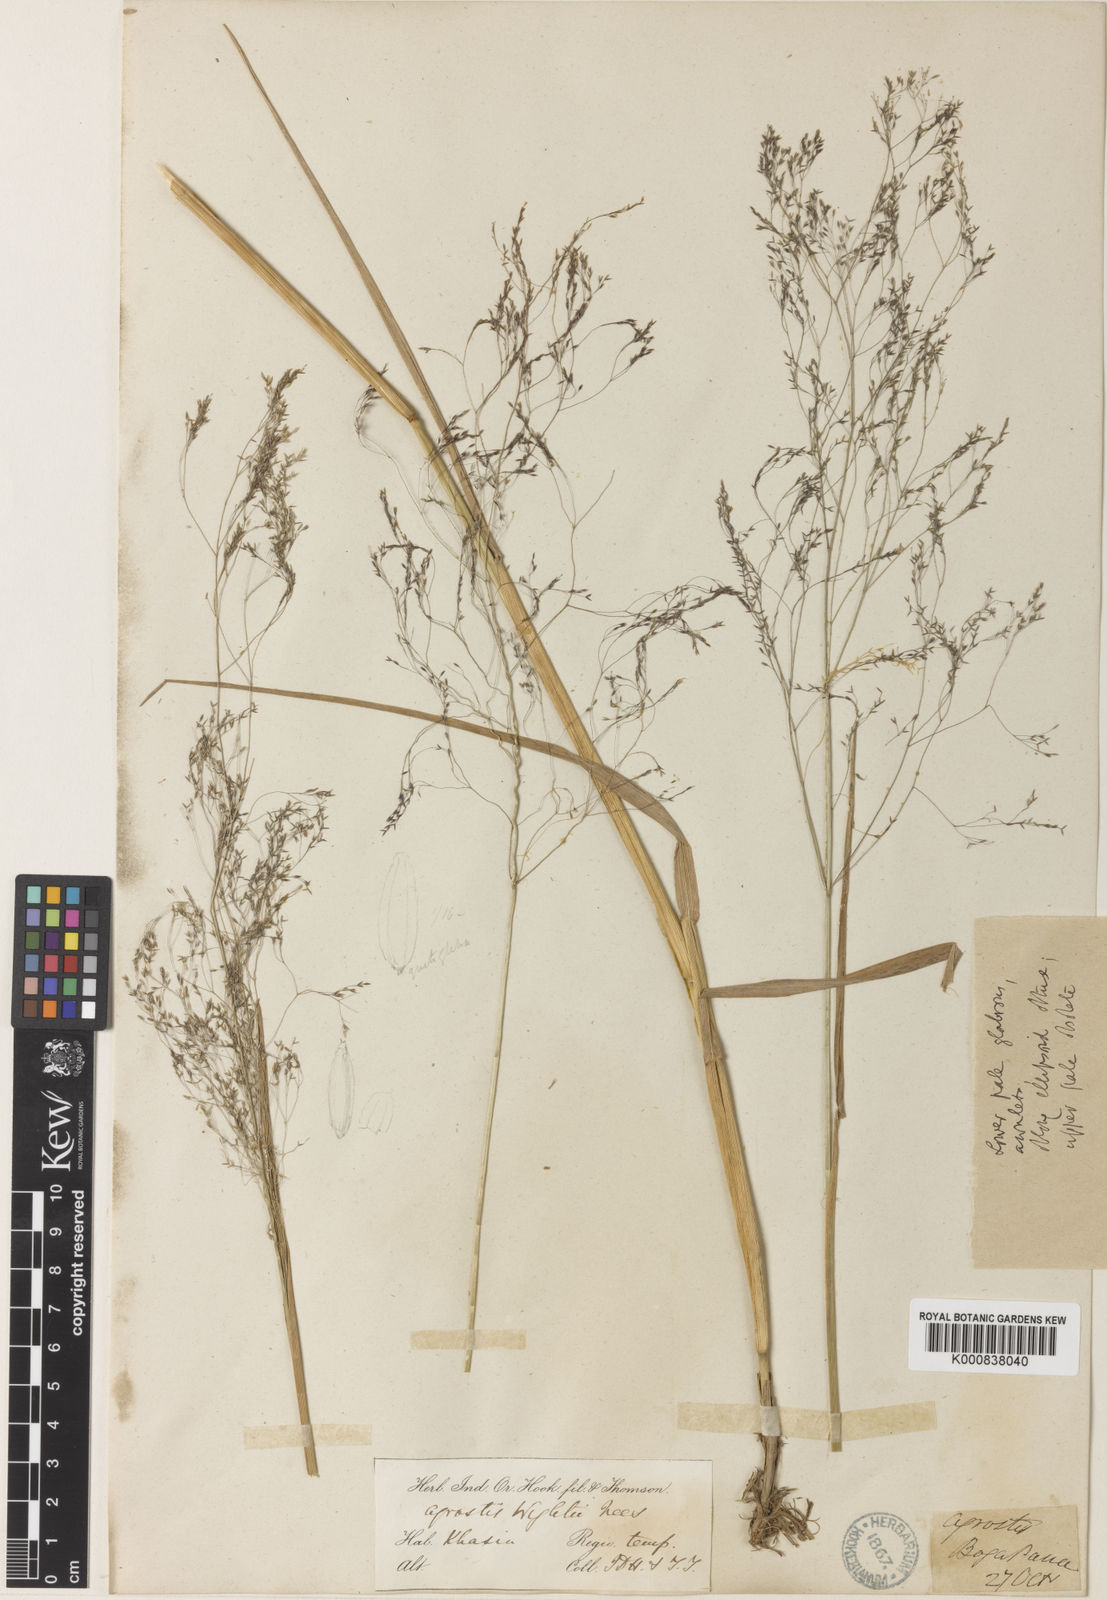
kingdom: Plantae
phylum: Tracheophyta
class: Liliopsida
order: Poales
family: Poaceae
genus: Agrostis
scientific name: Agrostis micrantha
